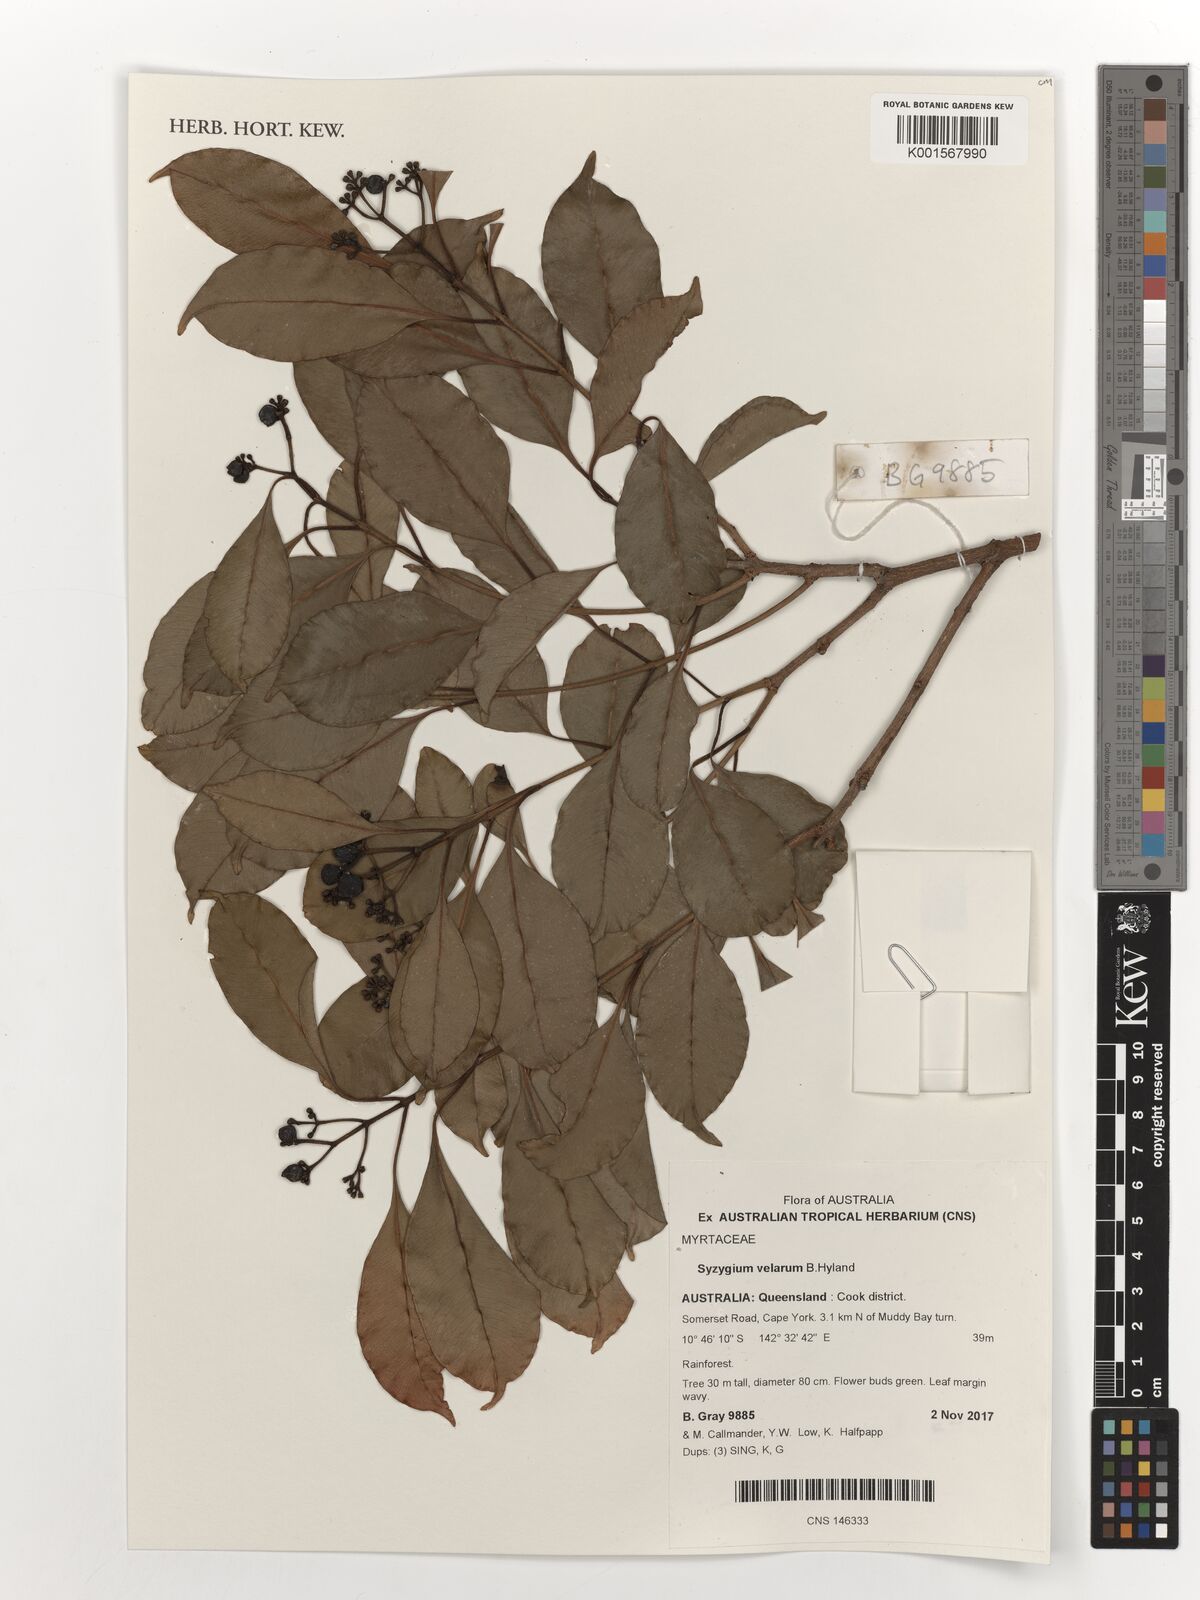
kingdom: Plantae
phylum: Tracheophyta
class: Magnoliopsida
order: Myrtales
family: Myrtaceae
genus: Syzygium
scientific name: Syzygium velarum
